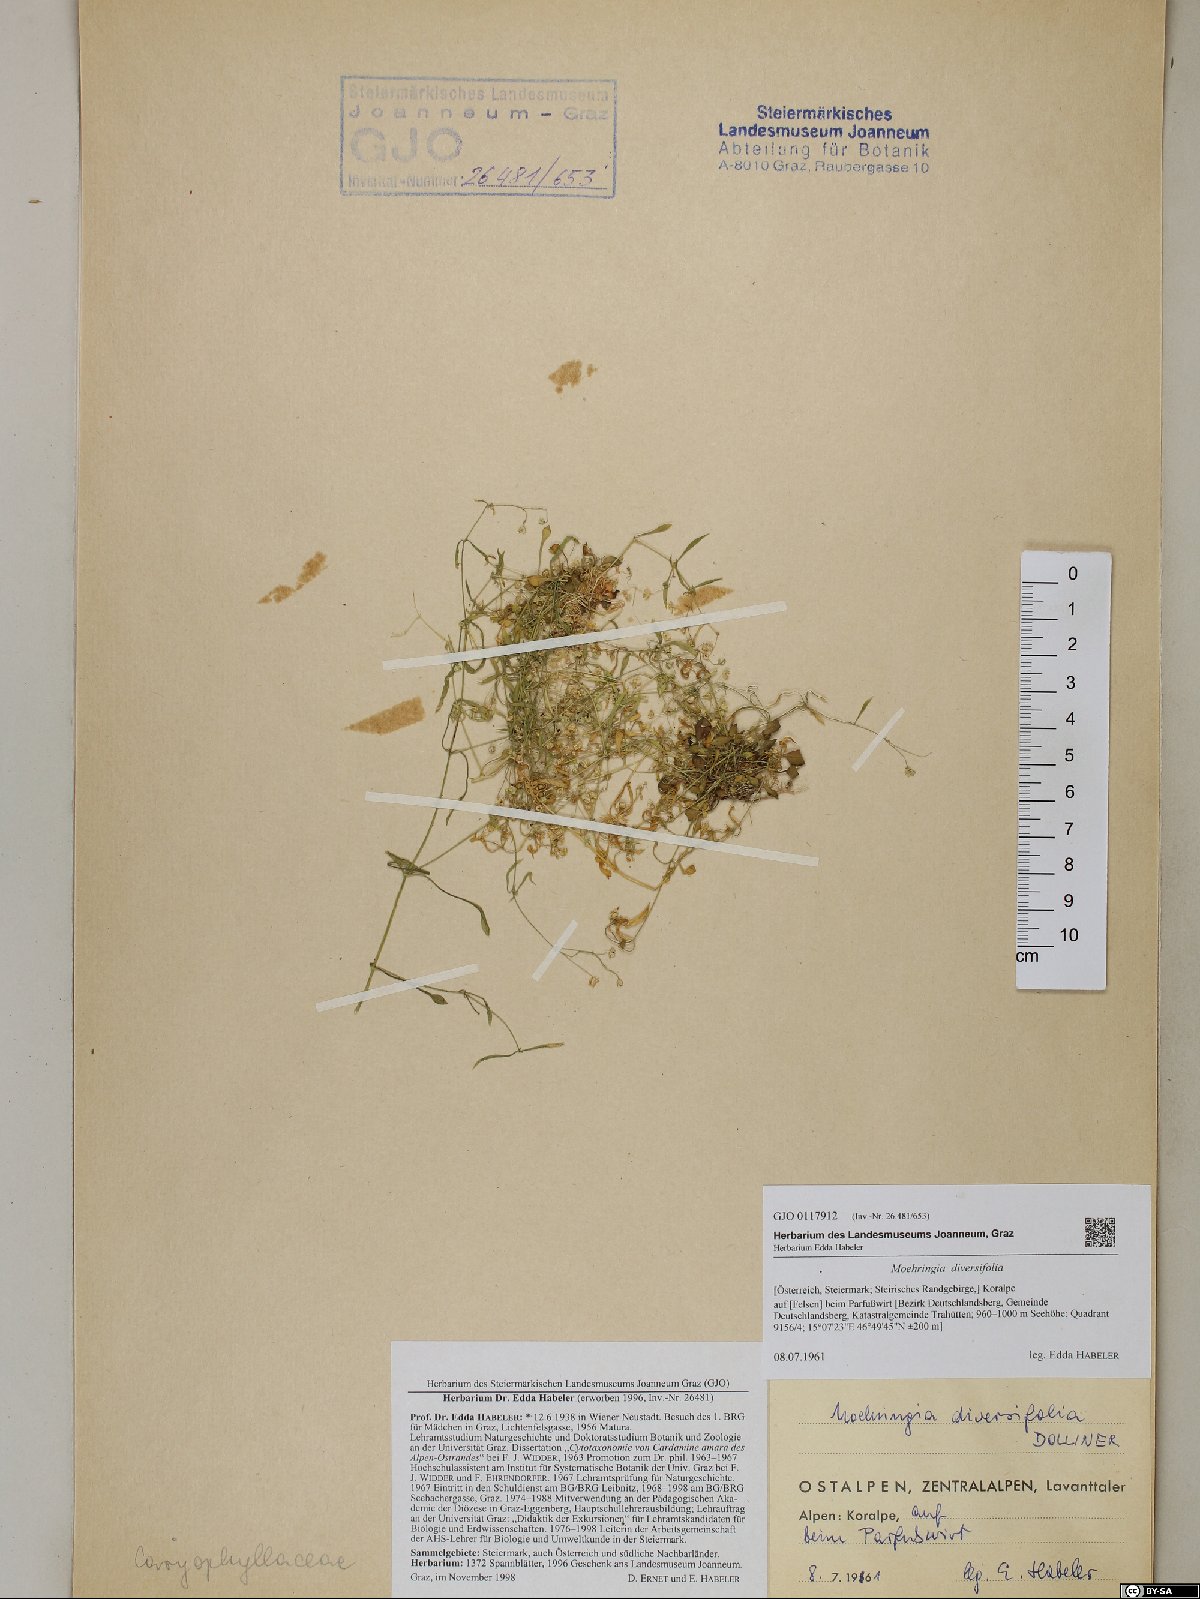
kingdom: Plantae
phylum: Tracheophyta
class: Magnoliopsida
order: Caryophyllales
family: Caryophyllaceae
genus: Moehringia
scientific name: Moehringia diversifolia
